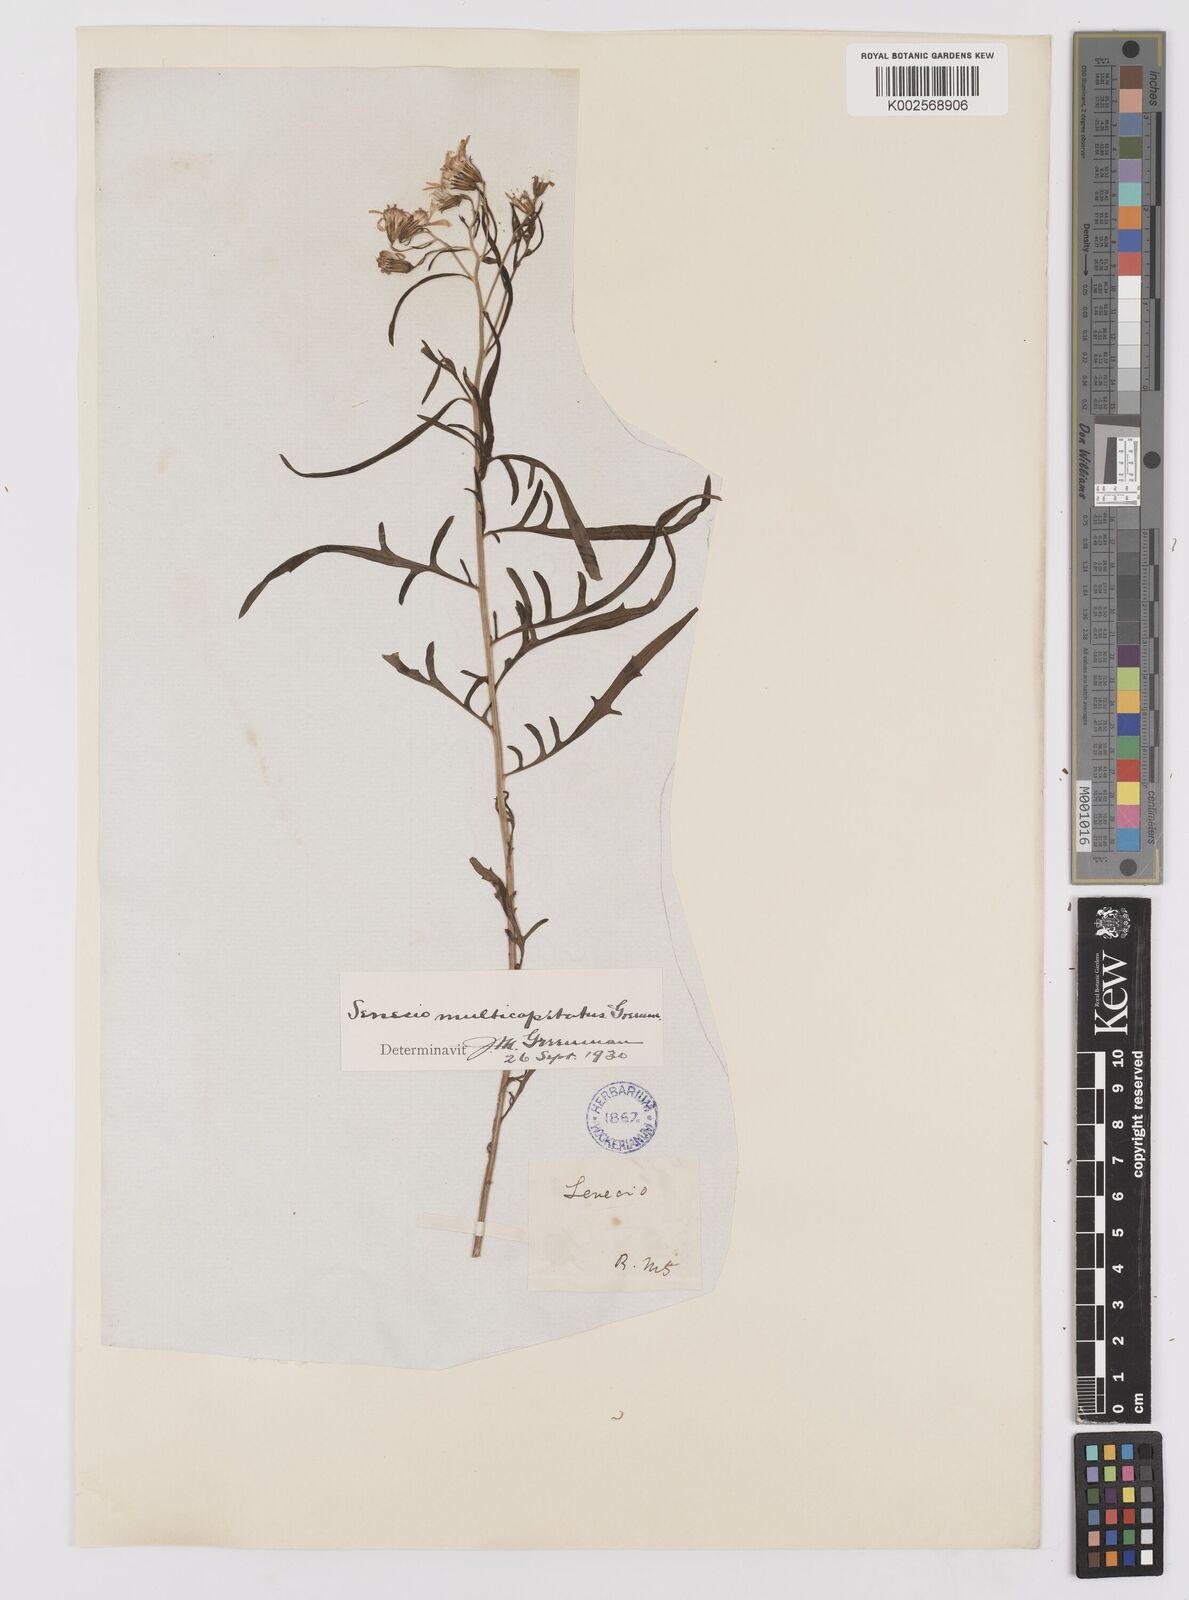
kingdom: Plantae
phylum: Tracheophyta
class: Magnoliopsida
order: Asterales
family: Asteraceae
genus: Senecio
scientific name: Senecio spartioides
